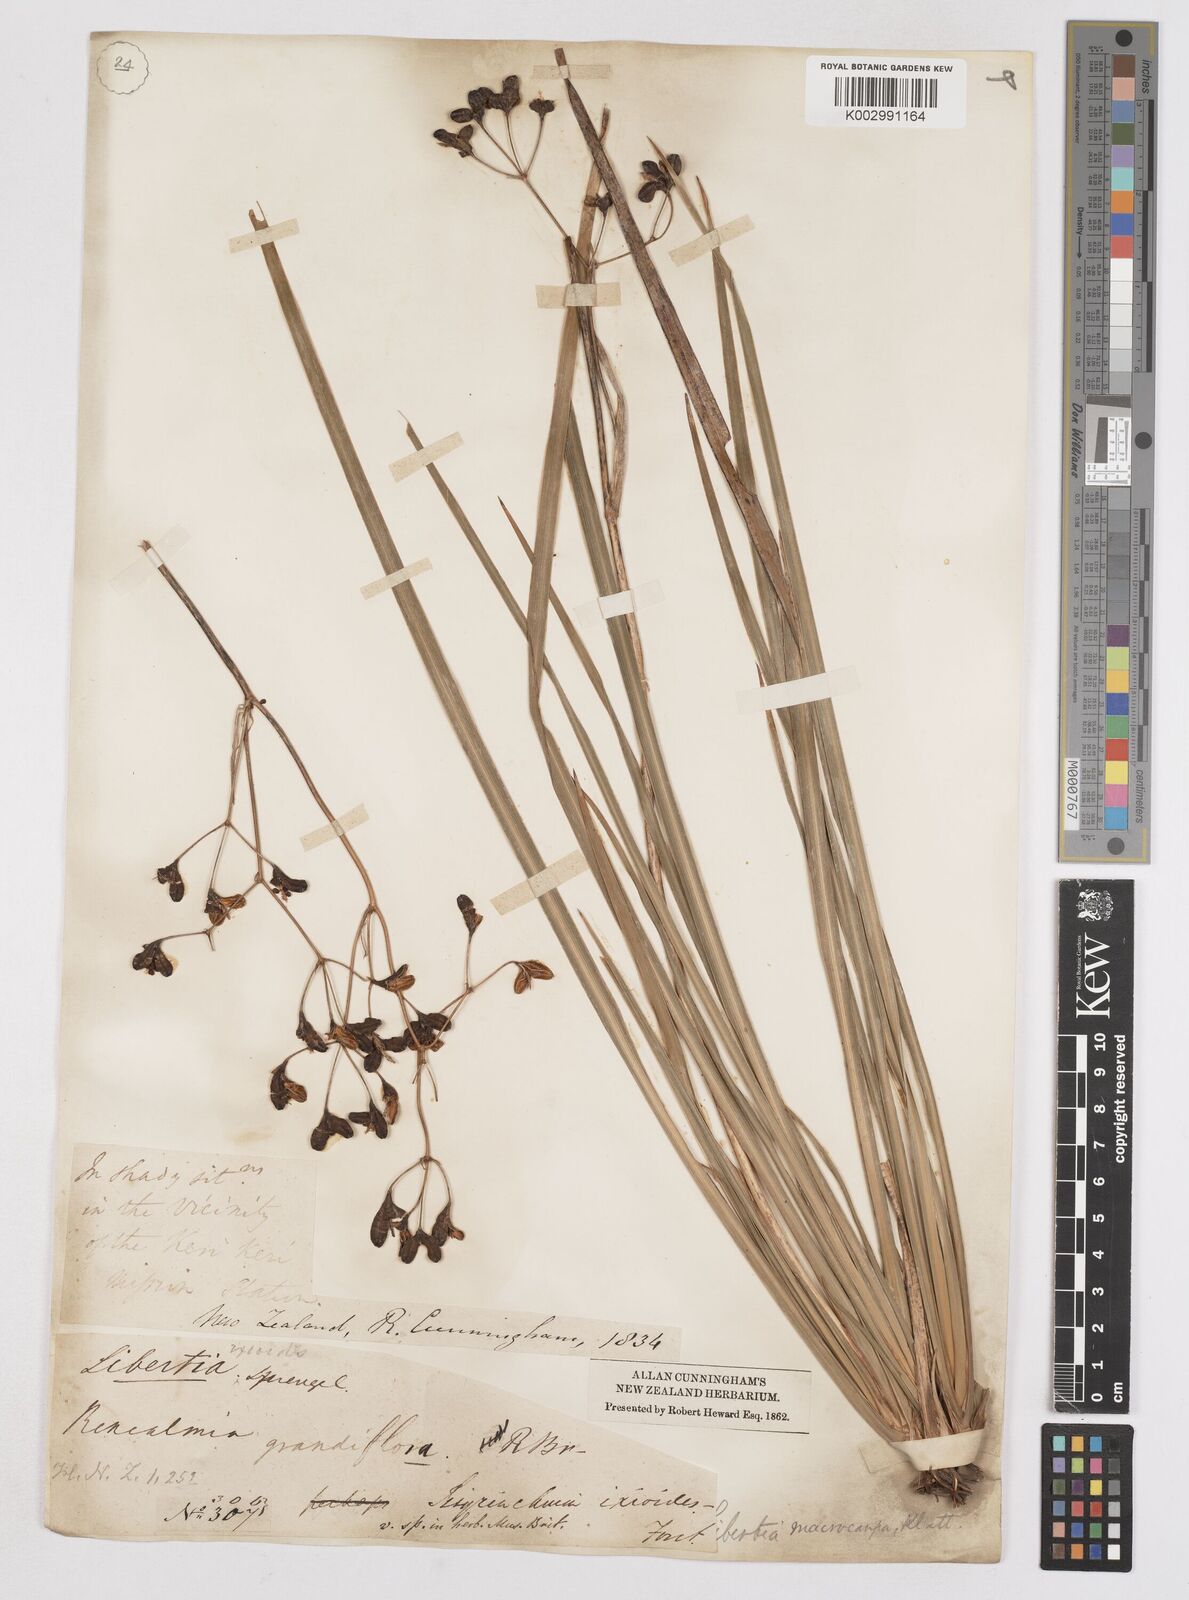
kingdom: Plantae
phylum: Tracheophyta
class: Liliopsida
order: Asparagales
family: Iridaceae
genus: Libertia
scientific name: Libertia ixioides
